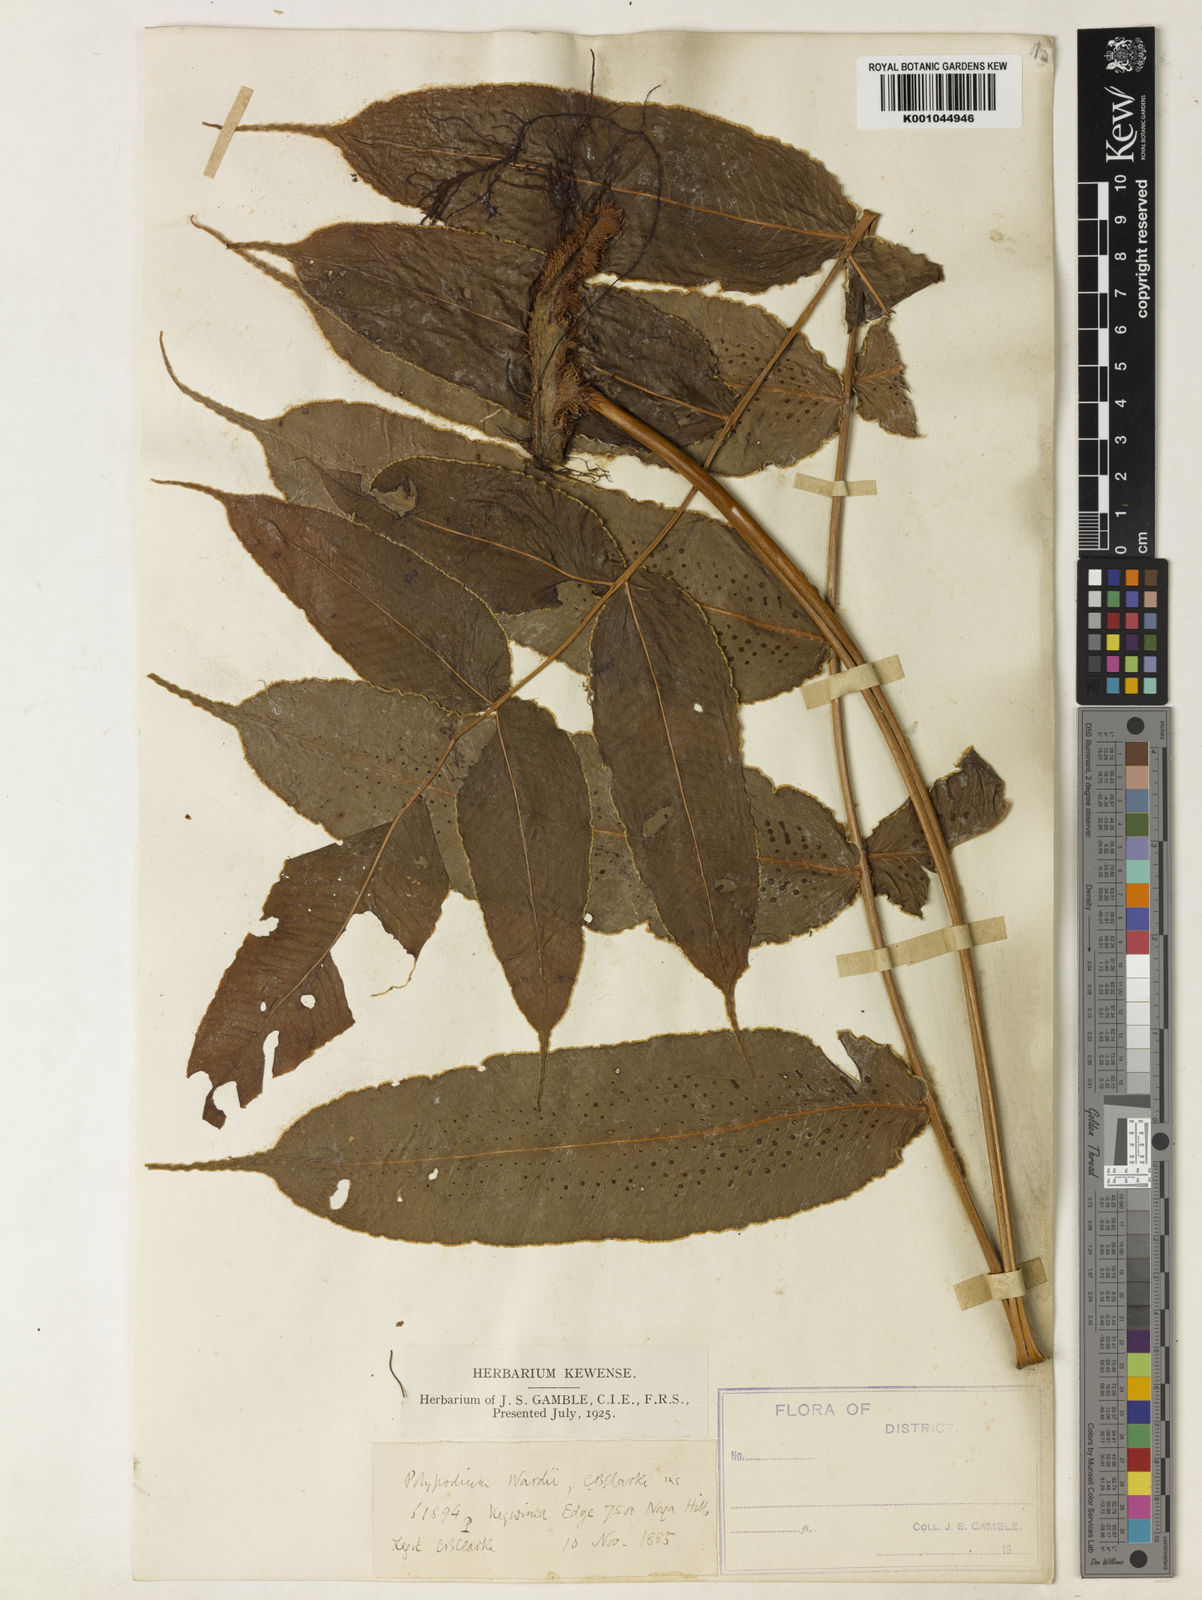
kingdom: Plantae
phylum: Tracheophyta
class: Polypodiopsida
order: Polypodiales
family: Polypodiaceae
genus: Selliguea
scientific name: Selliguea wardii
